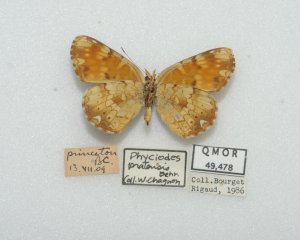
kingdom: Animalia
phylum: Arthropoda
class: Insecta
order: Lepidoptera
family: Nymphalidae
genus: Phyciodes
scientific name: Phyciodes tharos
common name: Field Crescent
